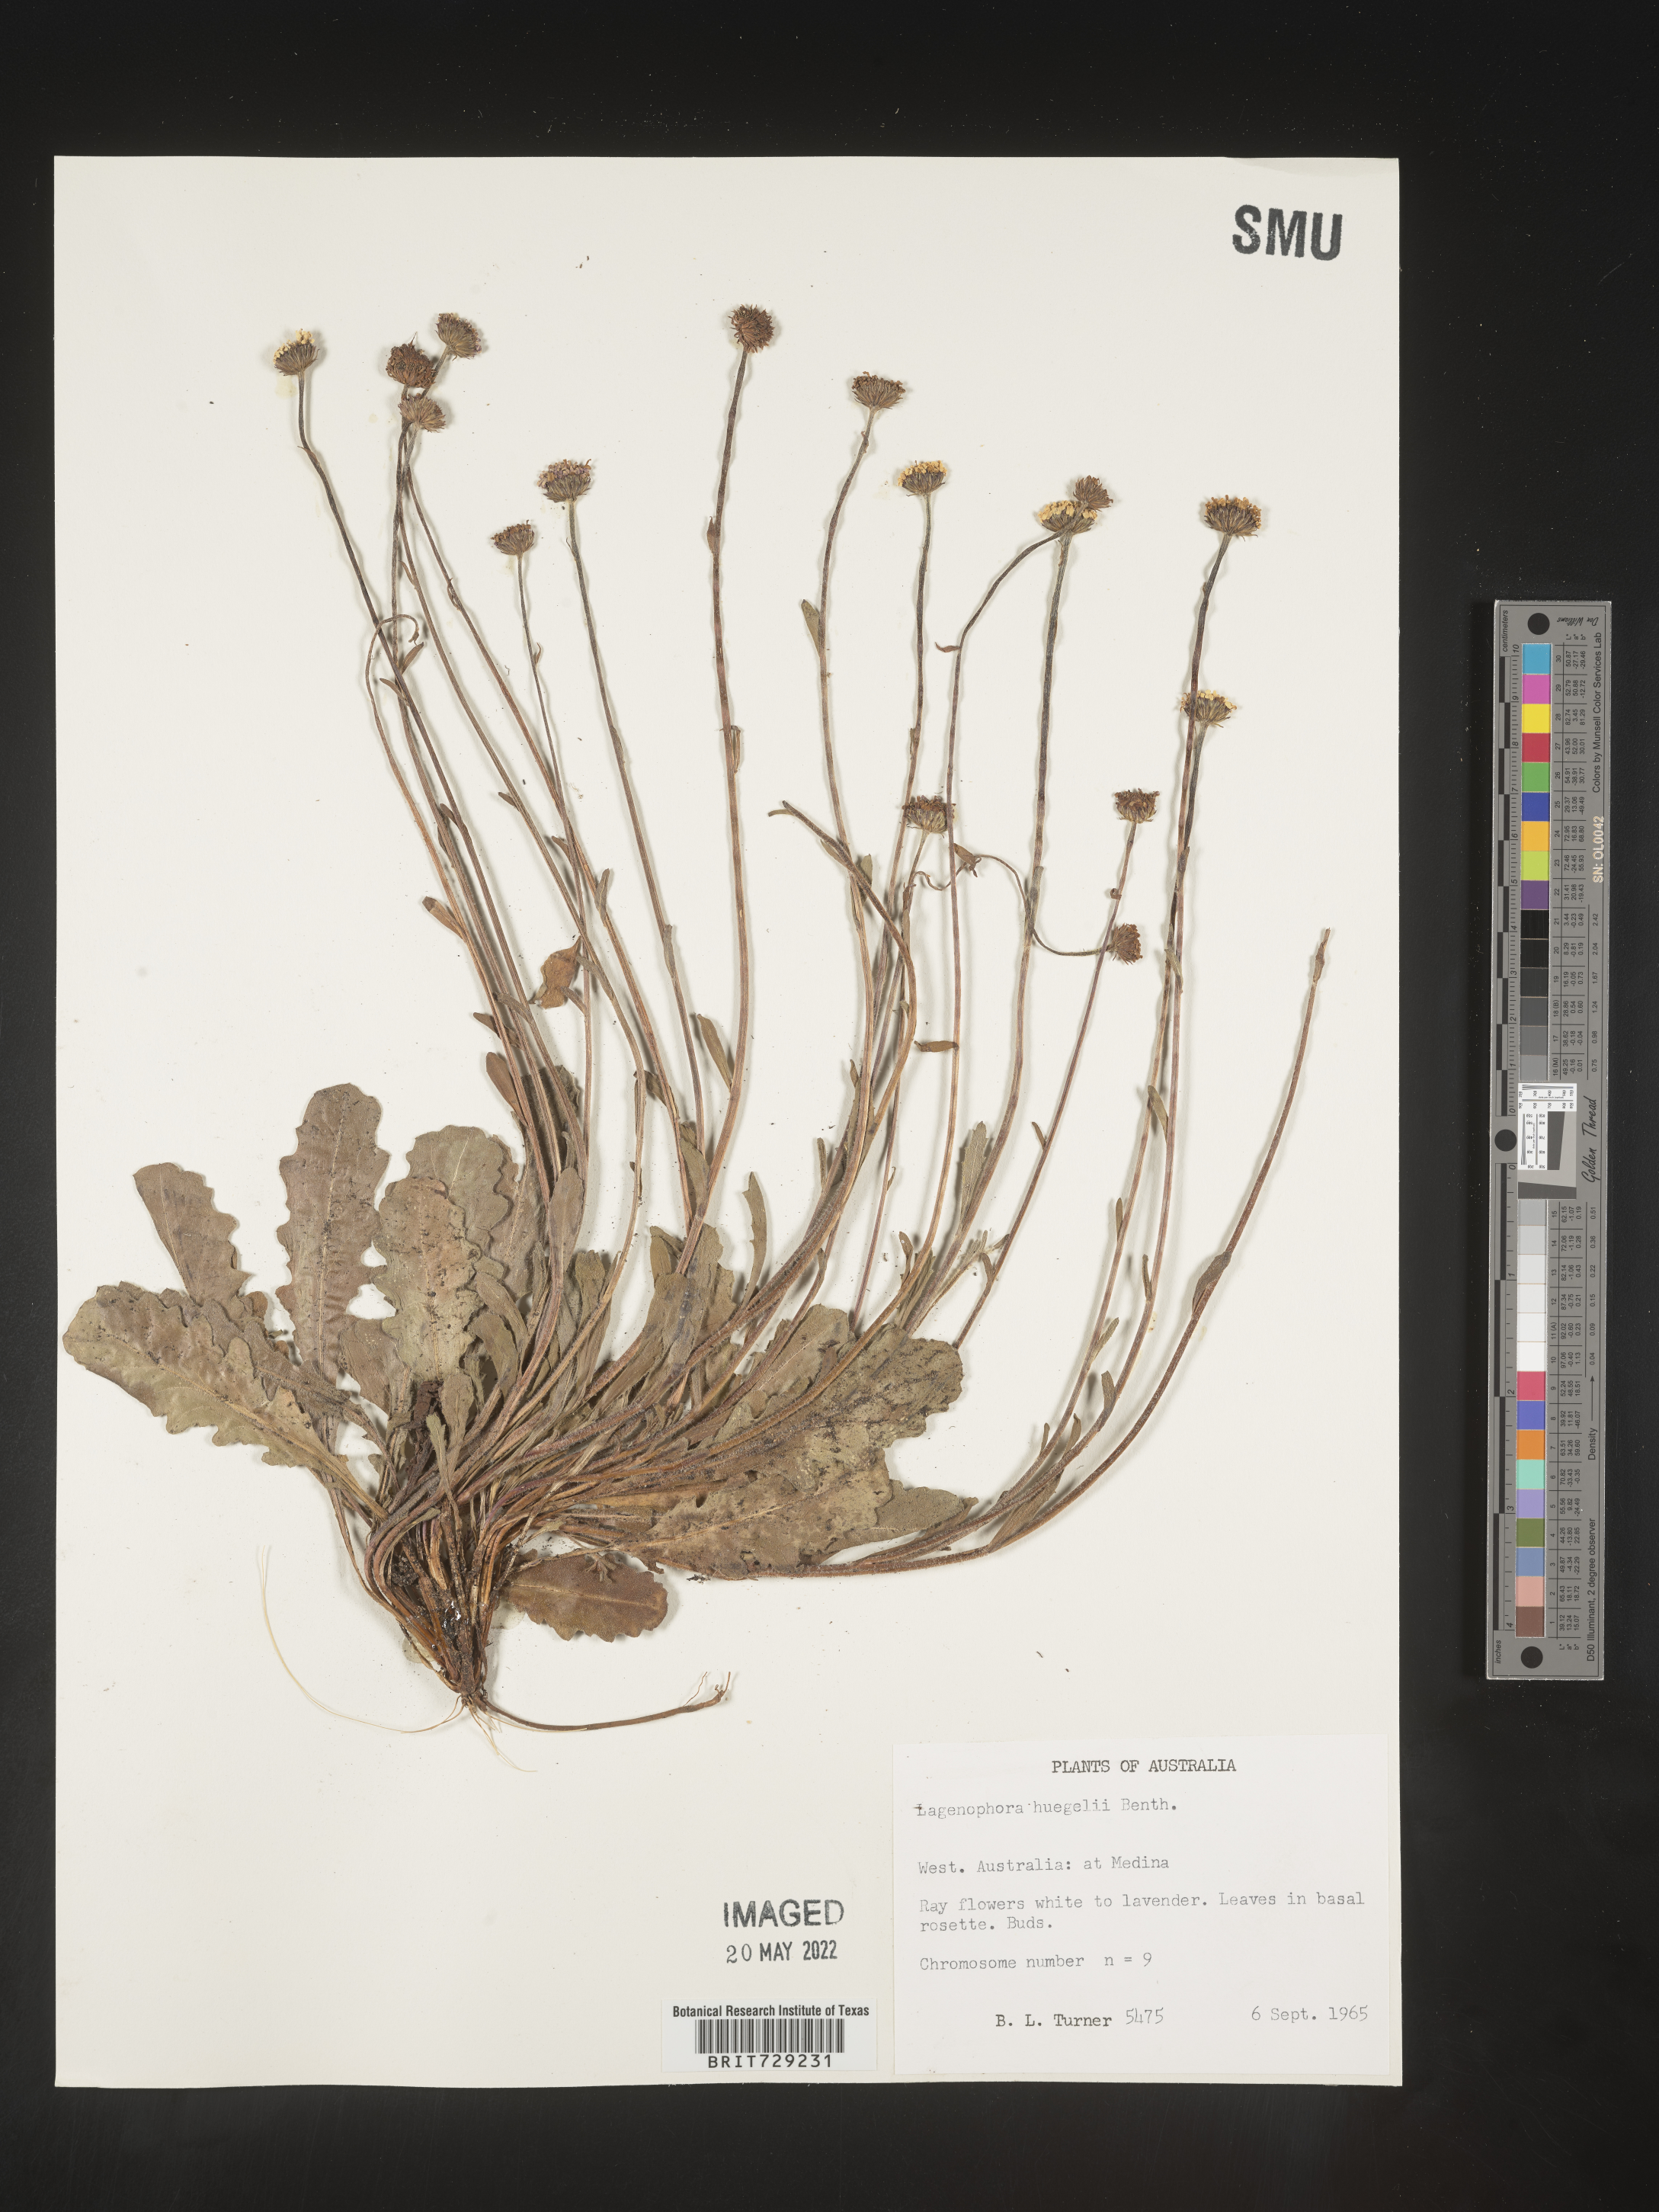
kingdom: Plantae
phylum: Tracheophyta
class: Magnoliopsida
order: Asterales
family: Asteraceae
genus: Lagenophora
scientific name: Lagenophora
